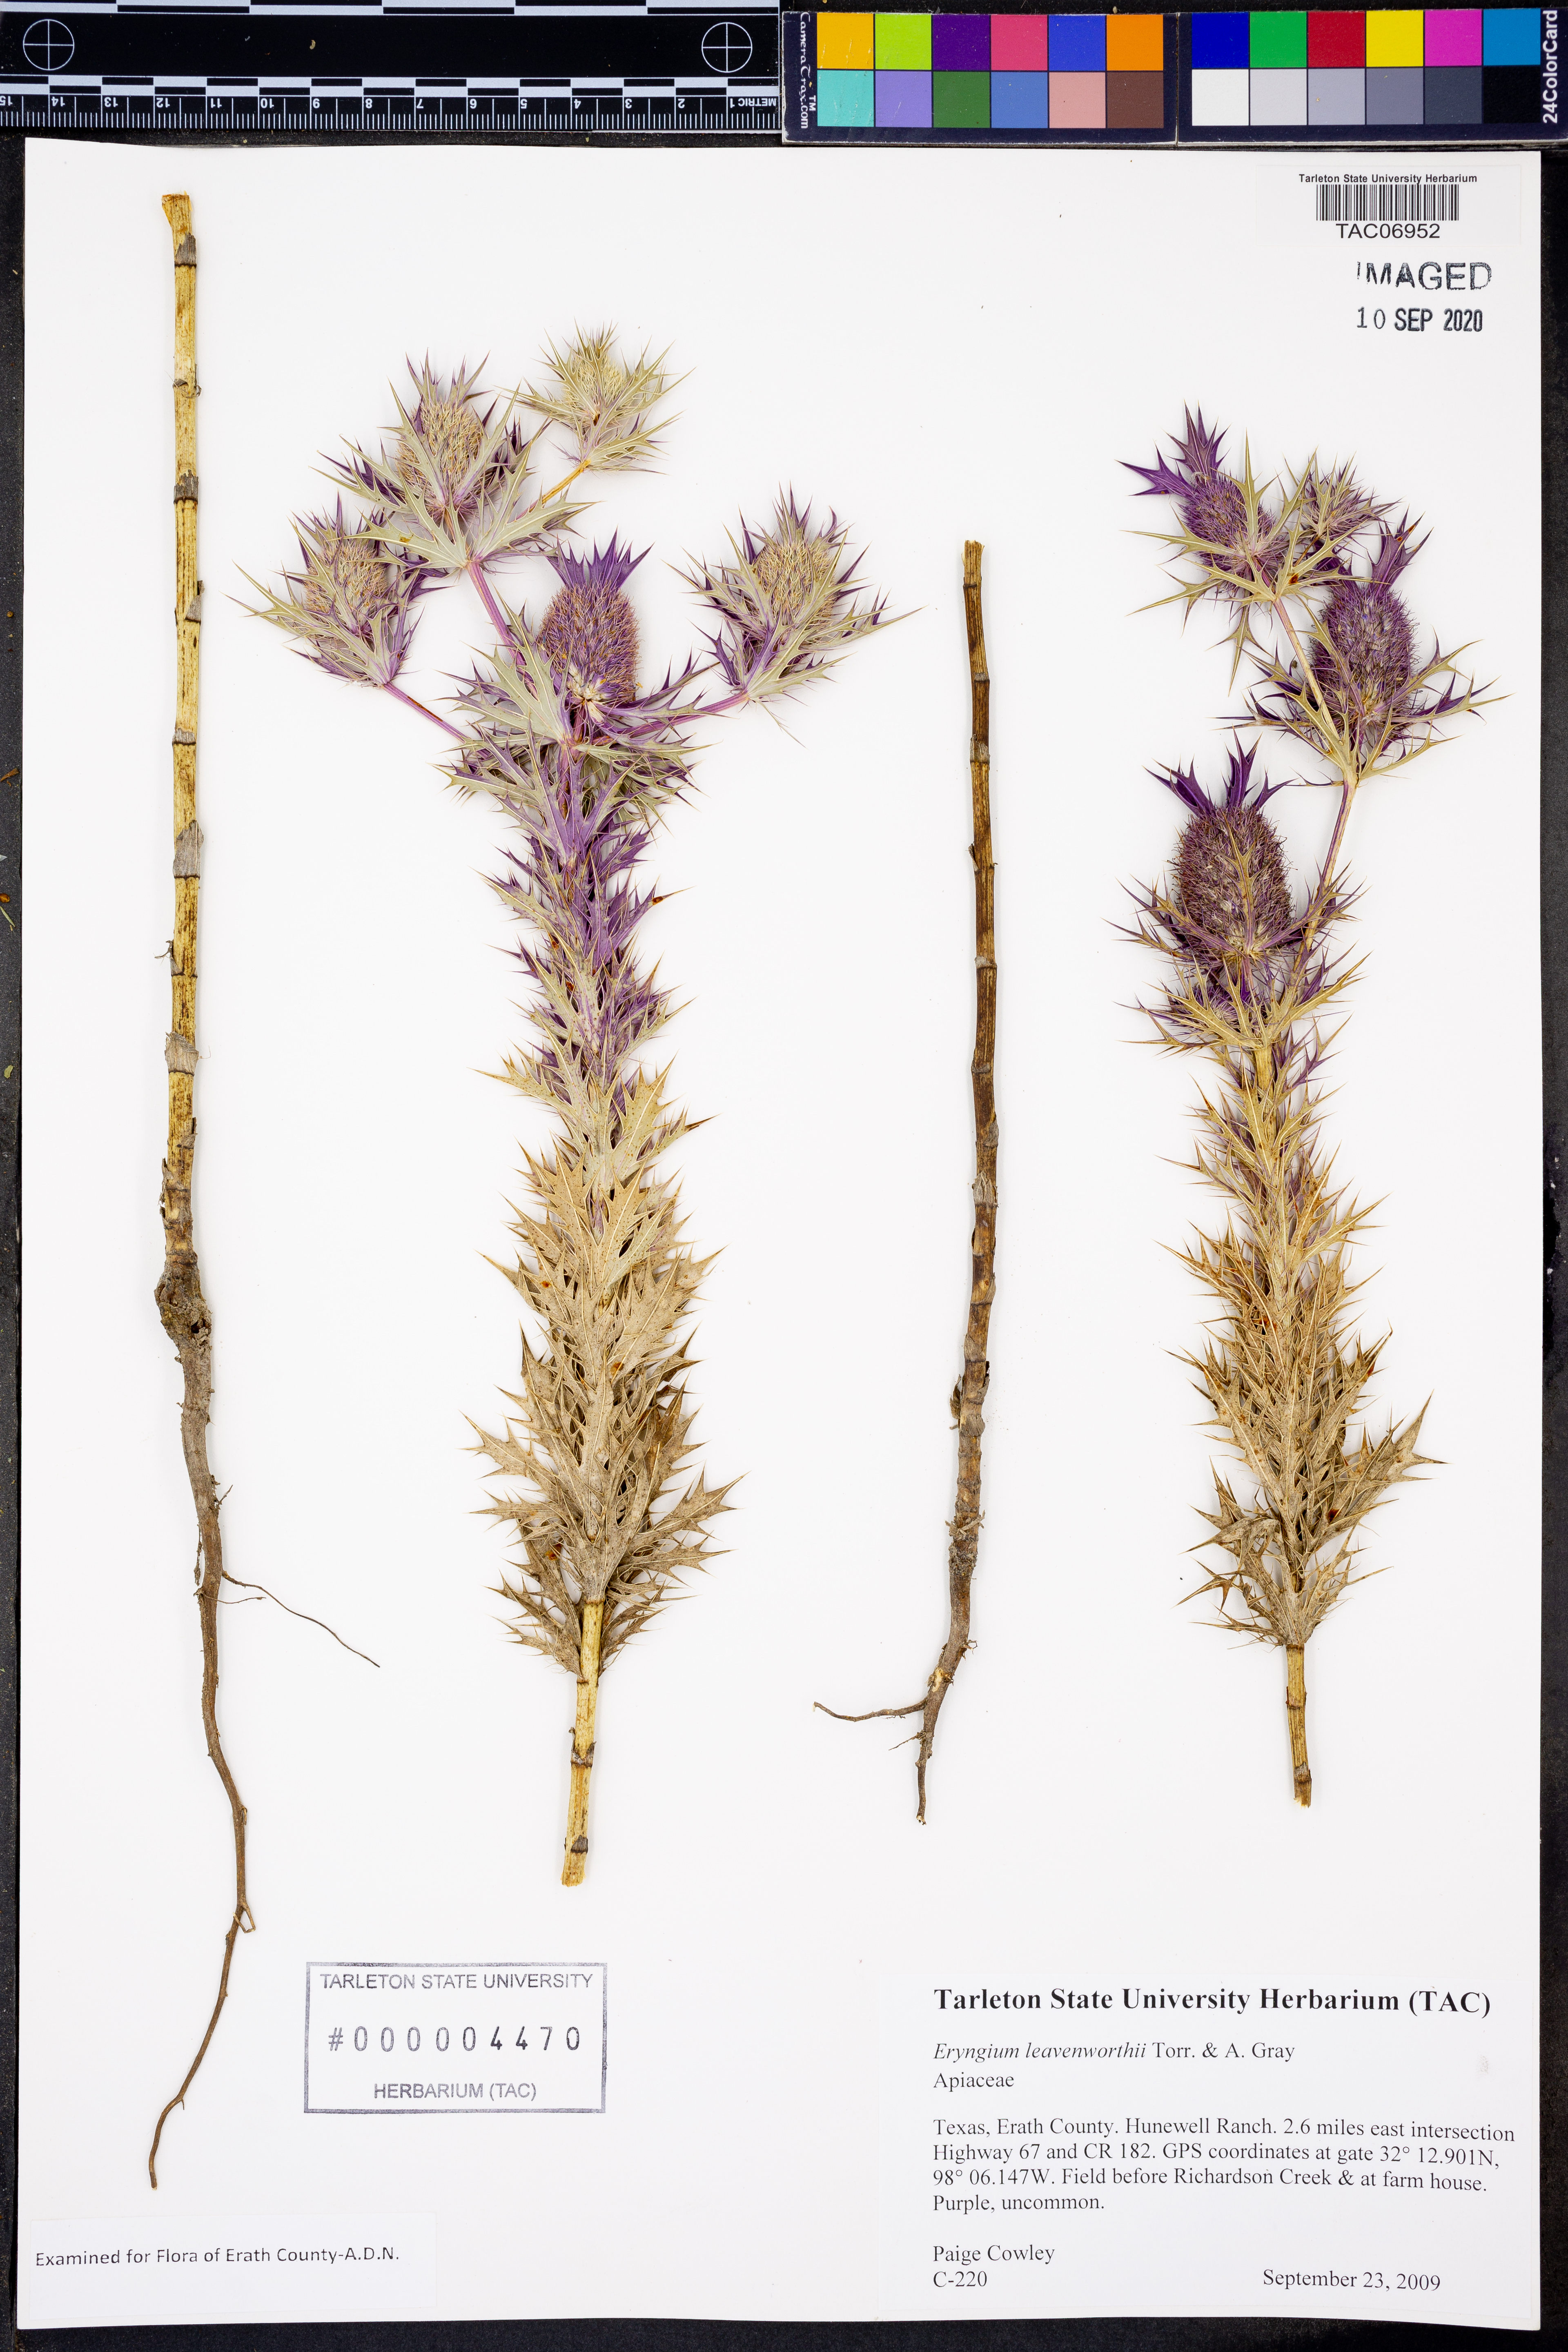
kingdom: Plantae
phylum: Tracheophyta
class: Magnoliopsida
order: Apiales
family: Apiaceae
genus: Eryngium
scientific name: Eryngium leavenworthii
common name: Leavenworth's eryngo
